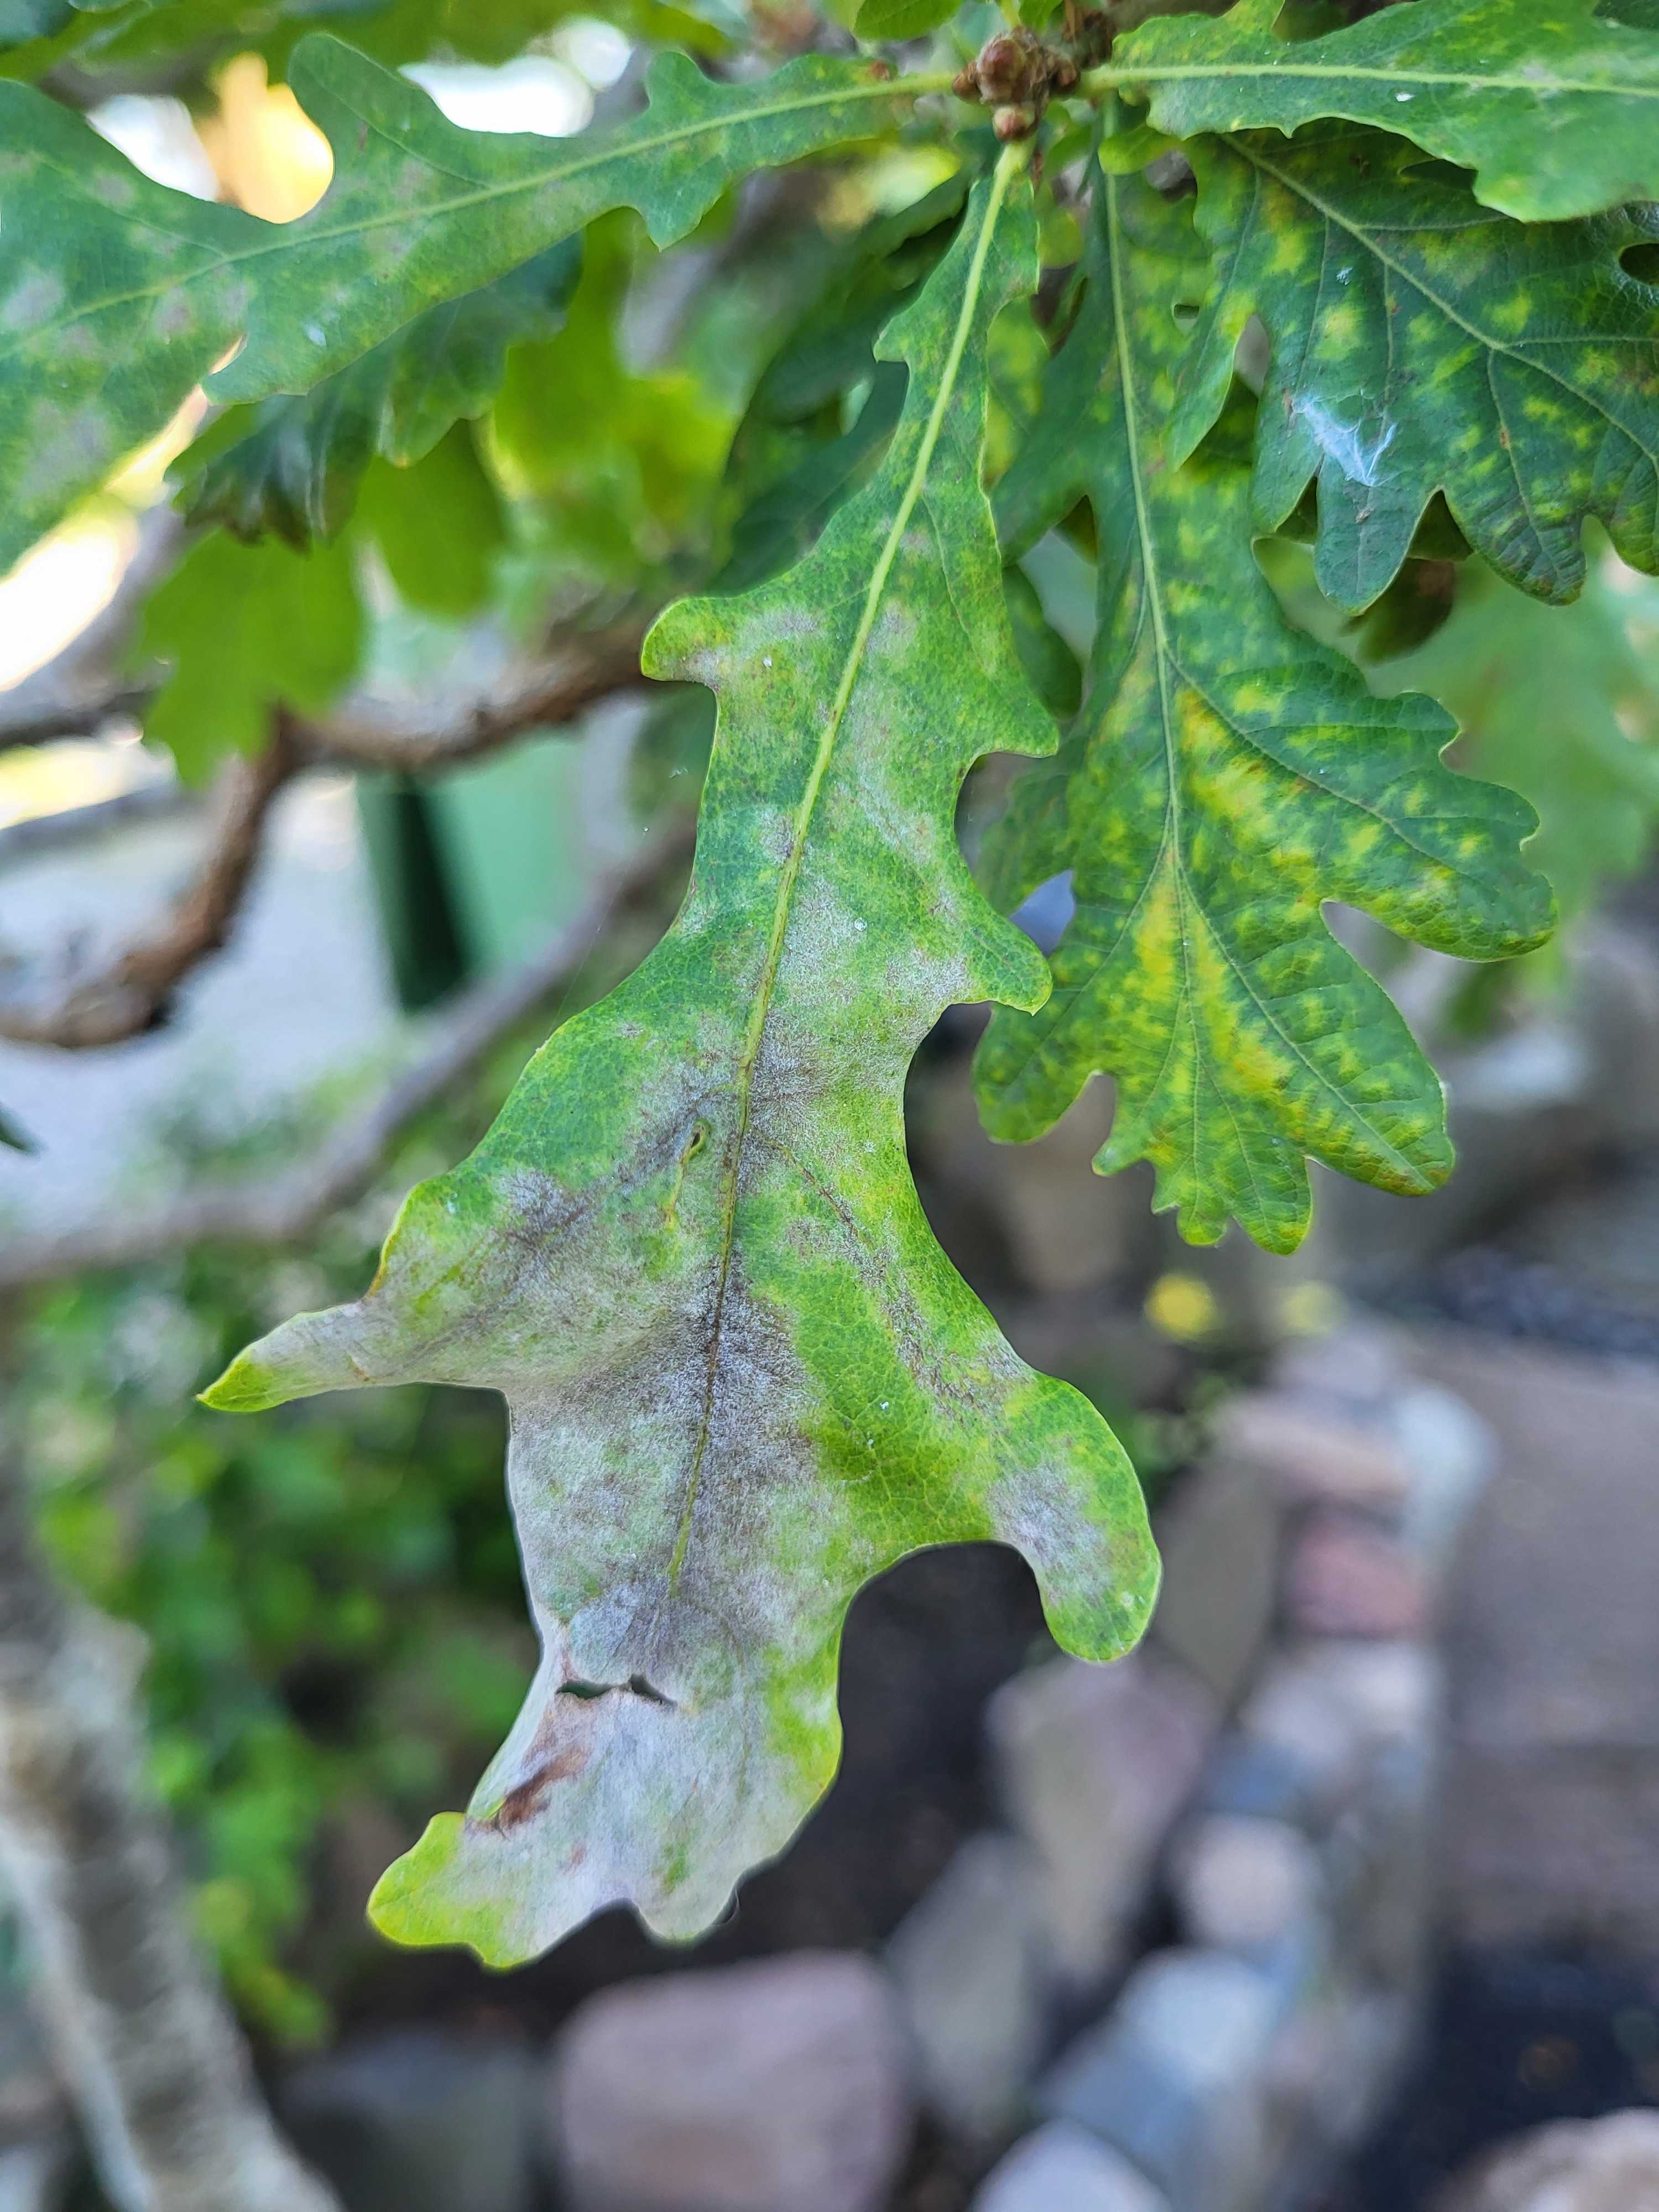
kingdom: Fungi
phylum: Ascomycota
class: Leotiomycetes
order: Helotiales
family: Erysiphaceae
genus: Erysiphe
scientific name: Erysiphe alphitoides
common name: ege-meldug
